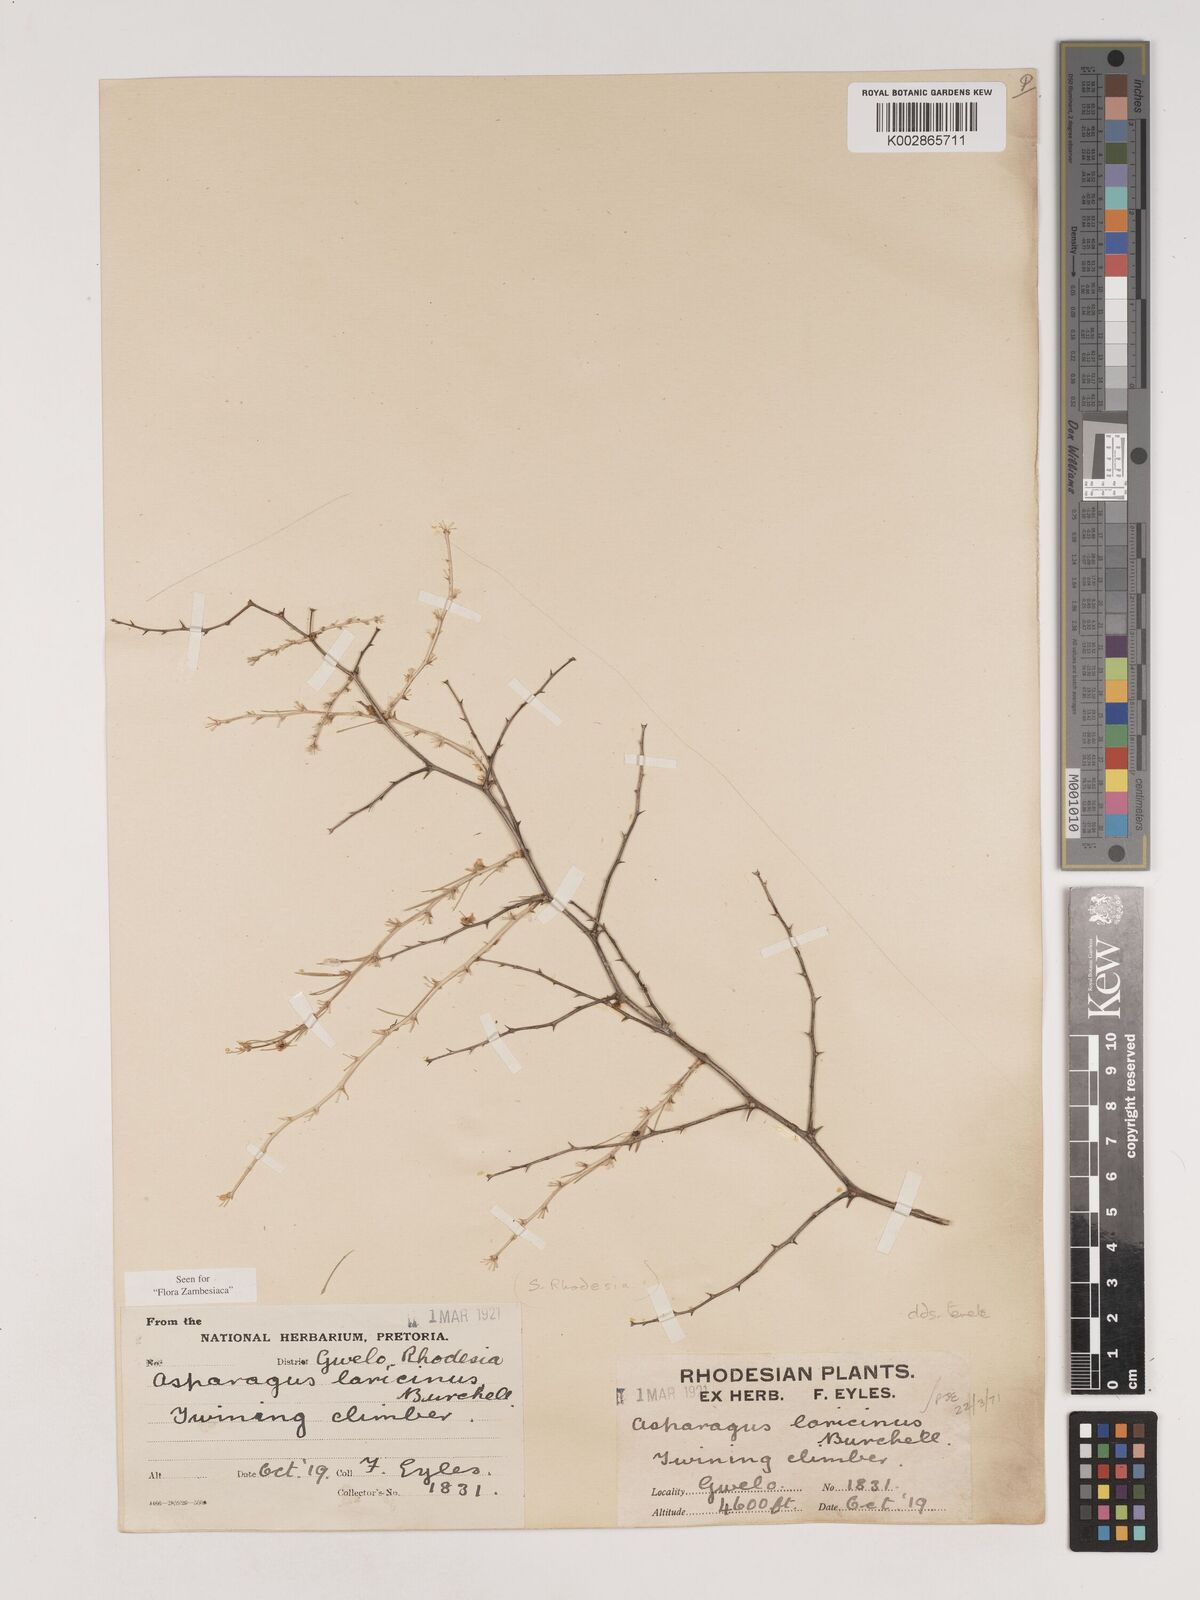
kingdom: Plantae
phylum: Tracheophyta
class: Liliopsida
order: Asparagales
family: Asparagaceae
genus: Asparagus
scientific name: Asparagus laricinus
